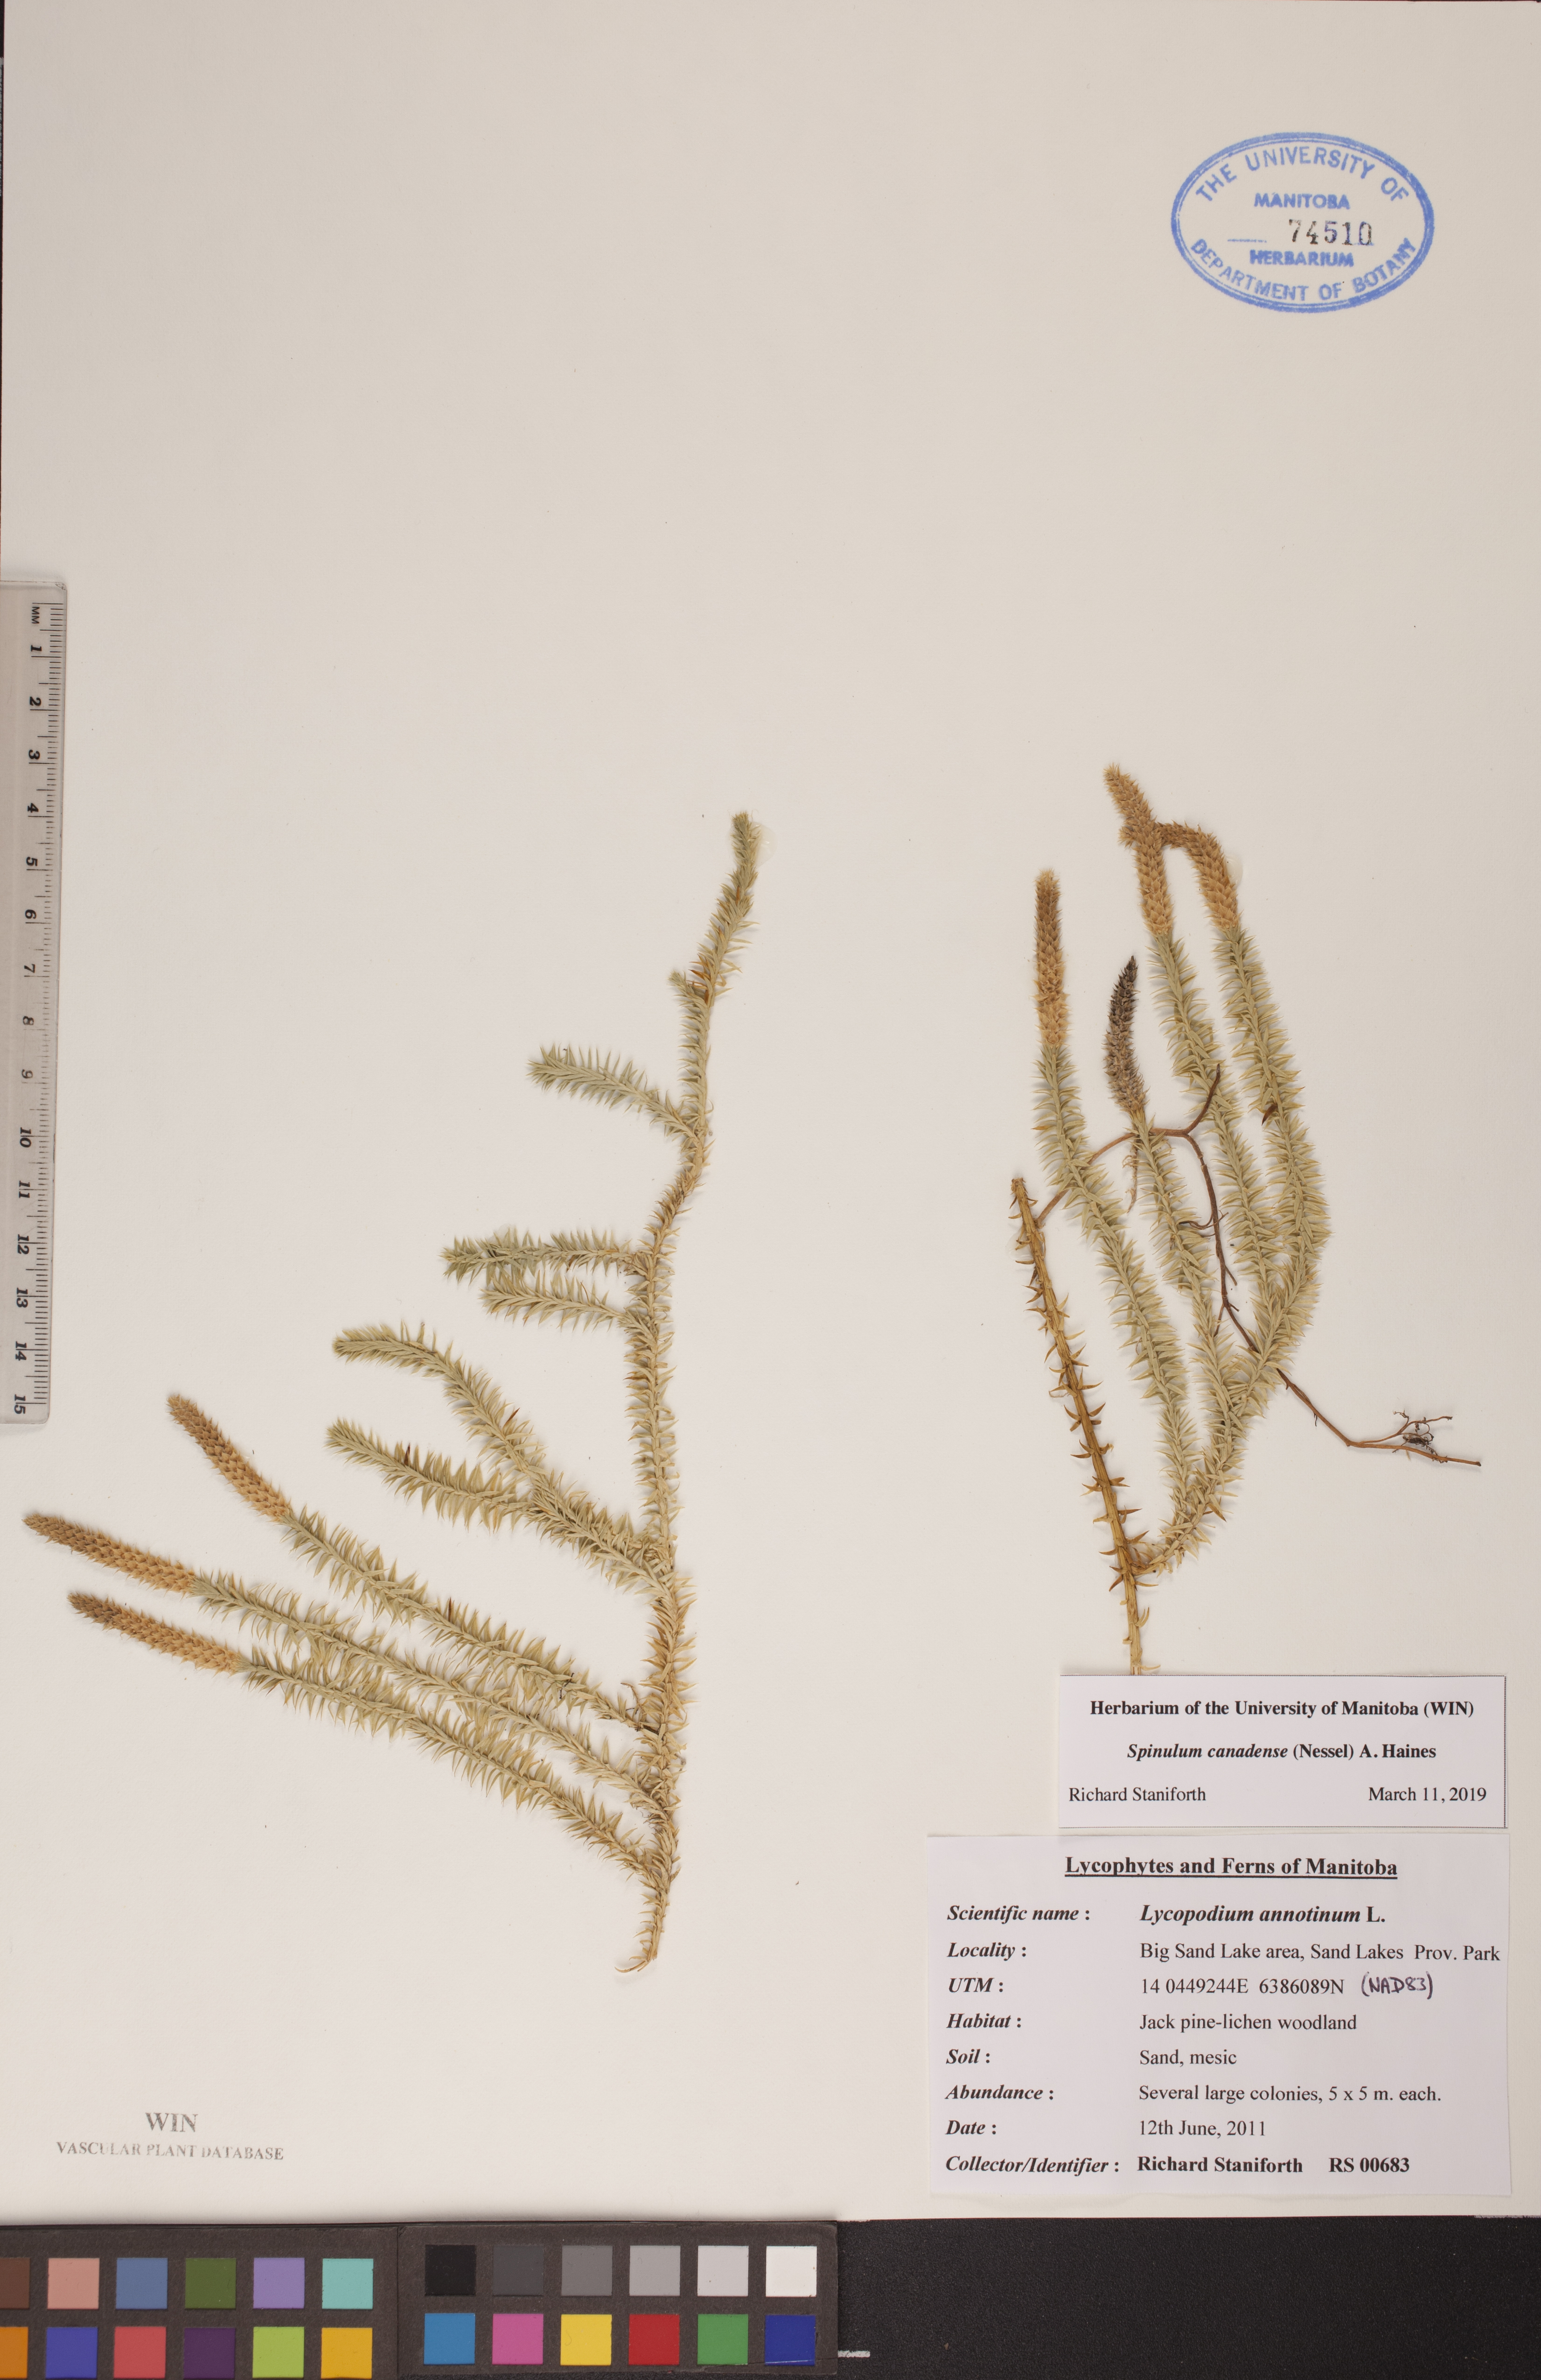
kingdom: Plantae
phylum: Tracheophyta
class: Lycopodiopsida
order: Lycopodiales
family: Lycopodiaceae
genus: Spinulum
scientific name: Spinulum annotinum
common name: Interrupted club-moss
